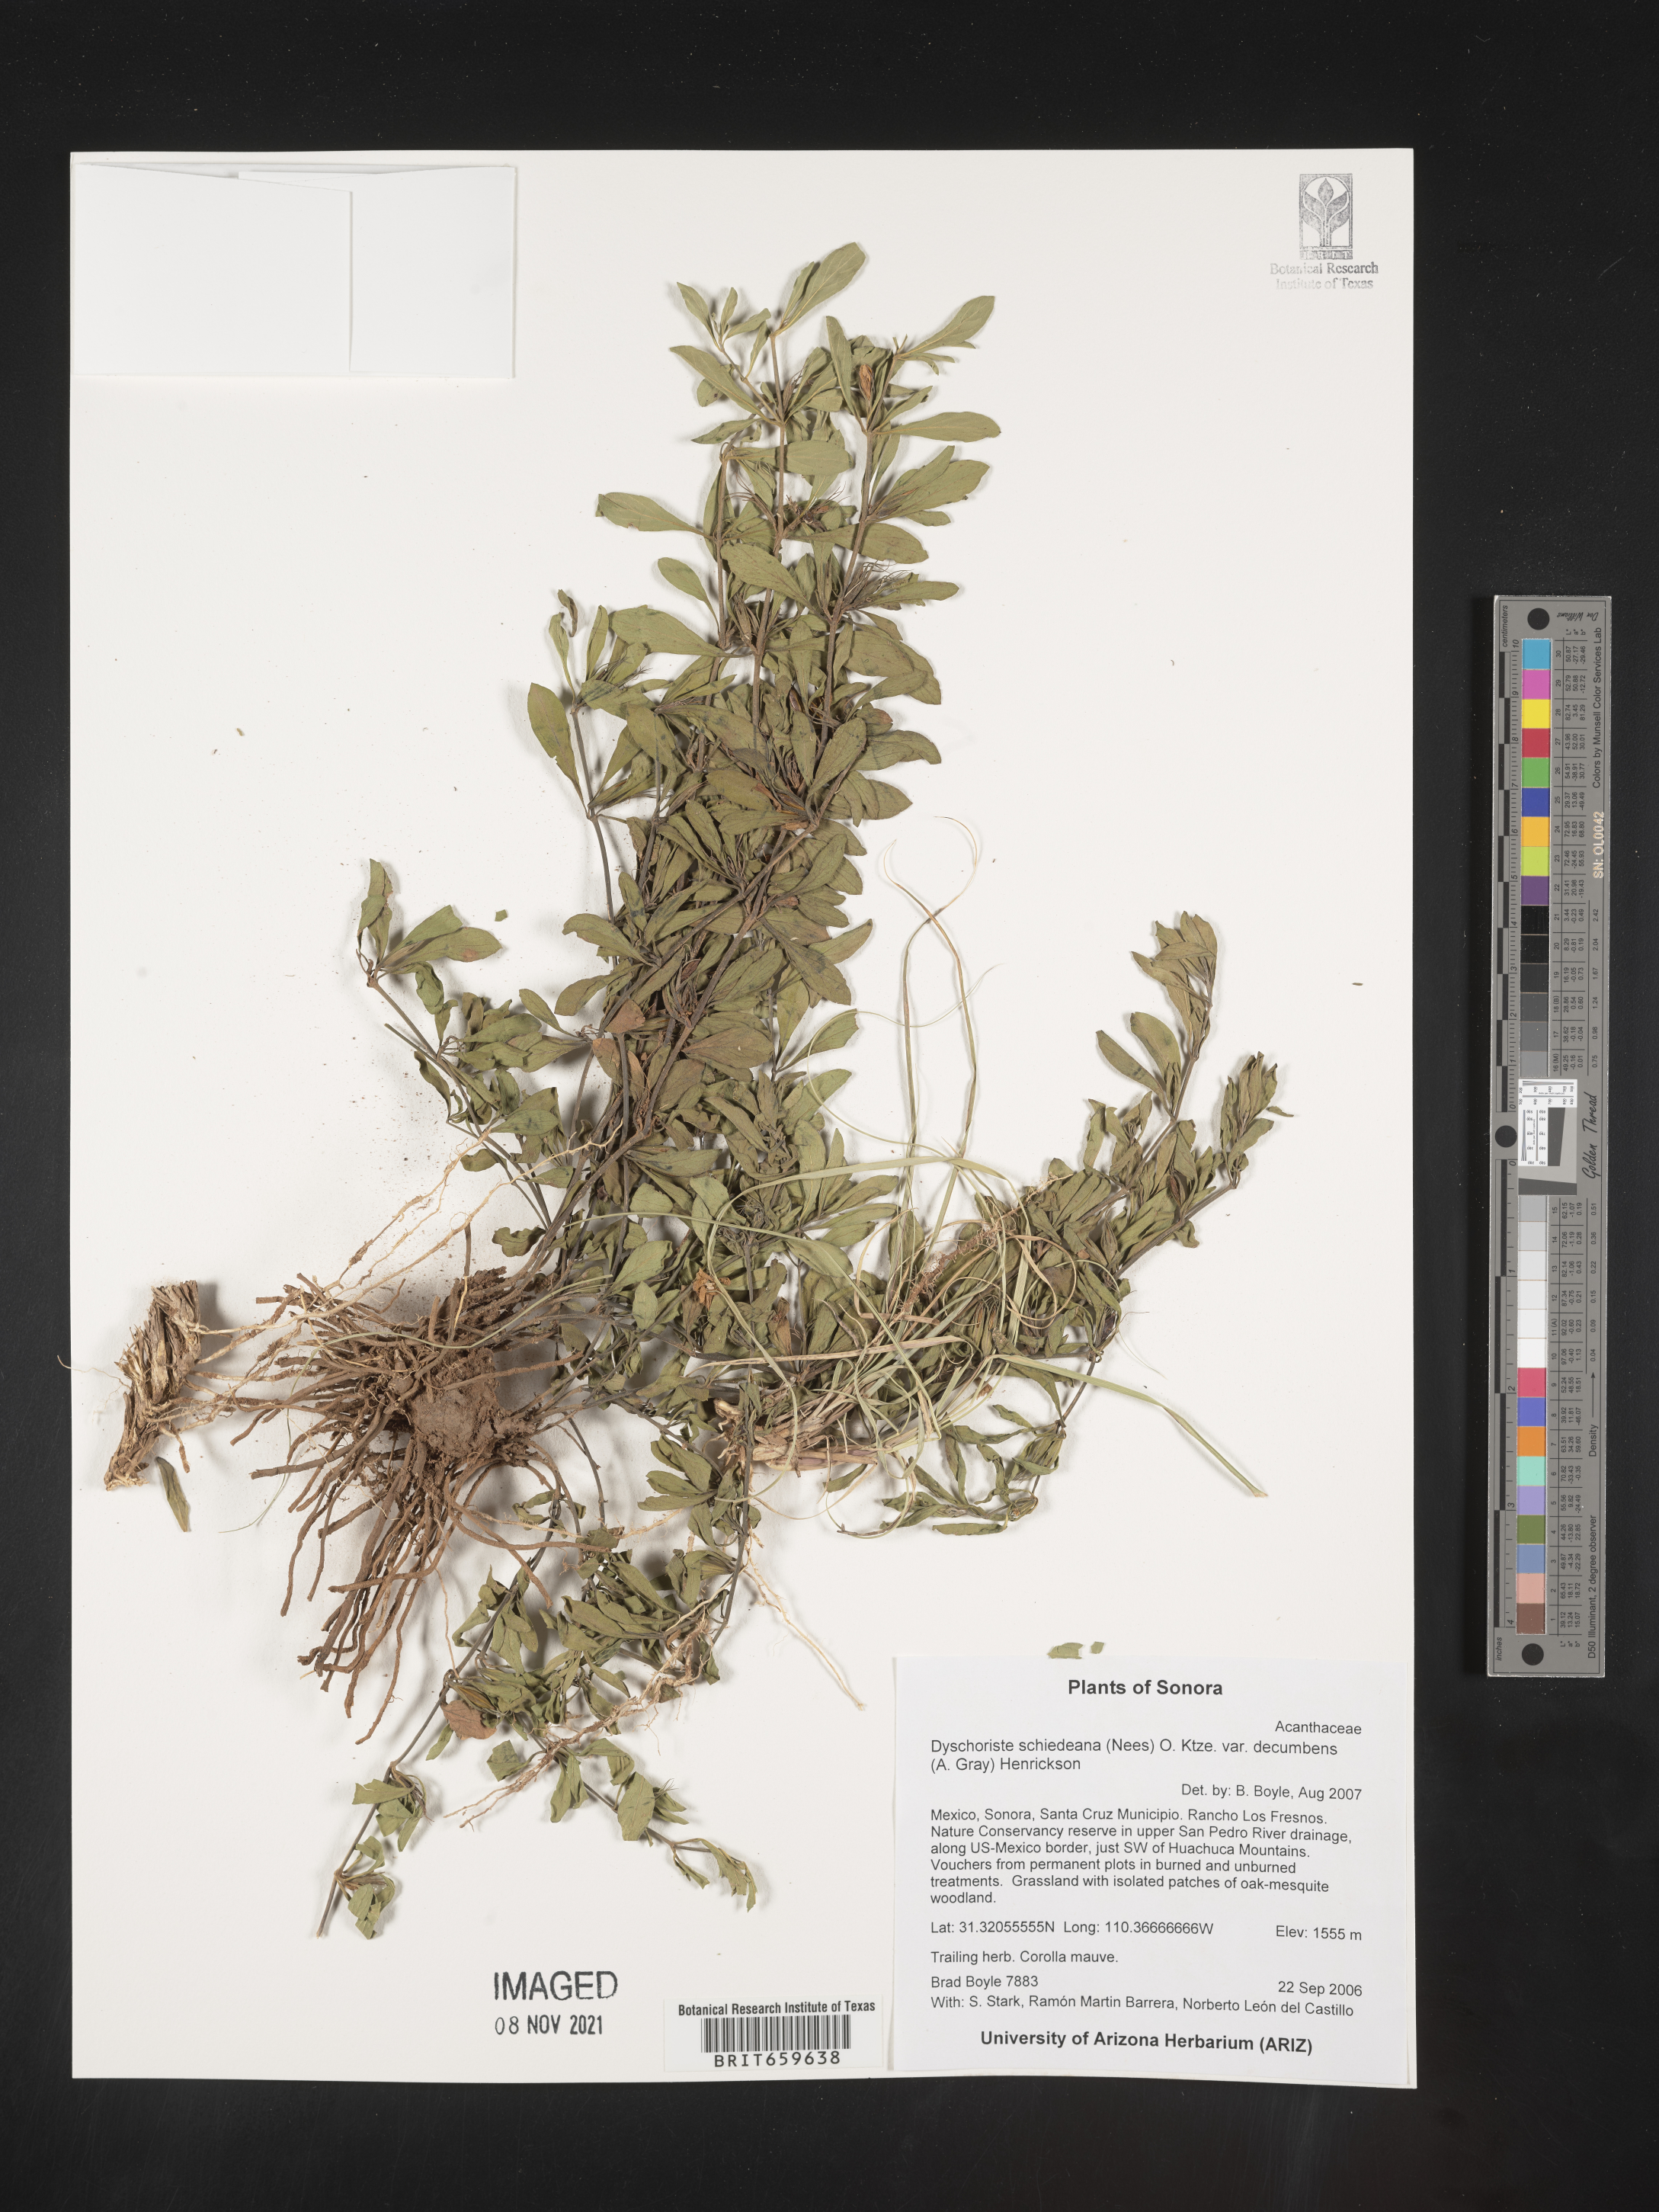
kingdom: Plantae
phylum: Tracheophyta
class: Magnoliopsida
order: Lamiales
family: Acanthaceae
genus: Dyschoriste
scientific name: Dyschoriste
